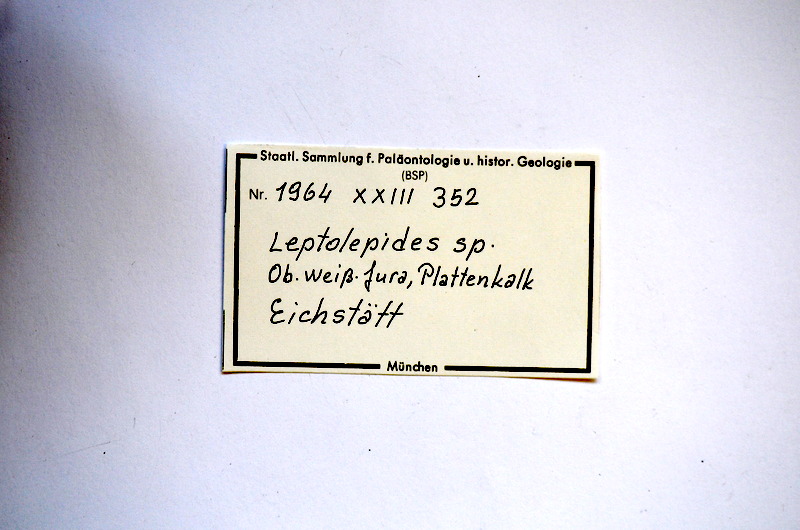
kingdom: Animalia
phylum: Chordata
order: Salmoniformes
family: Orthogonikleithridae
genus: Leptolepides
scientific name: Leptolepides
